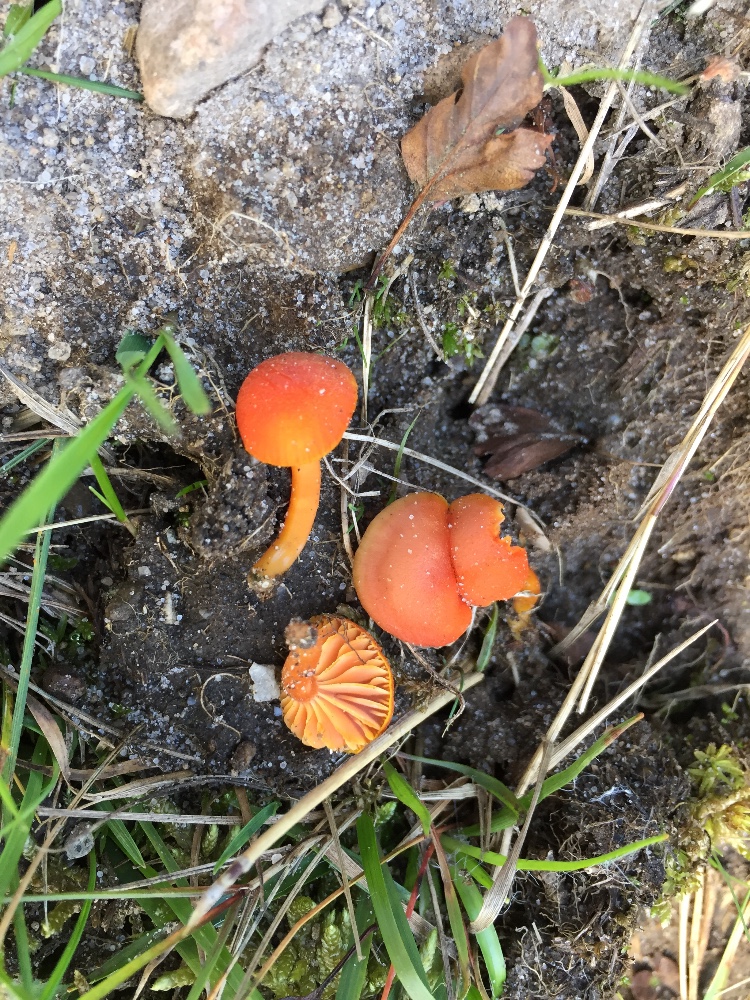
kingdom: Fungi
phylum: Basidiomycota
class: Agaricomycetes
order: Agaricales
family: Hygrophoraceae
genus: Hygrocybe
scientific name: Hygrocybe miniata
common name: mønje-vokshat
